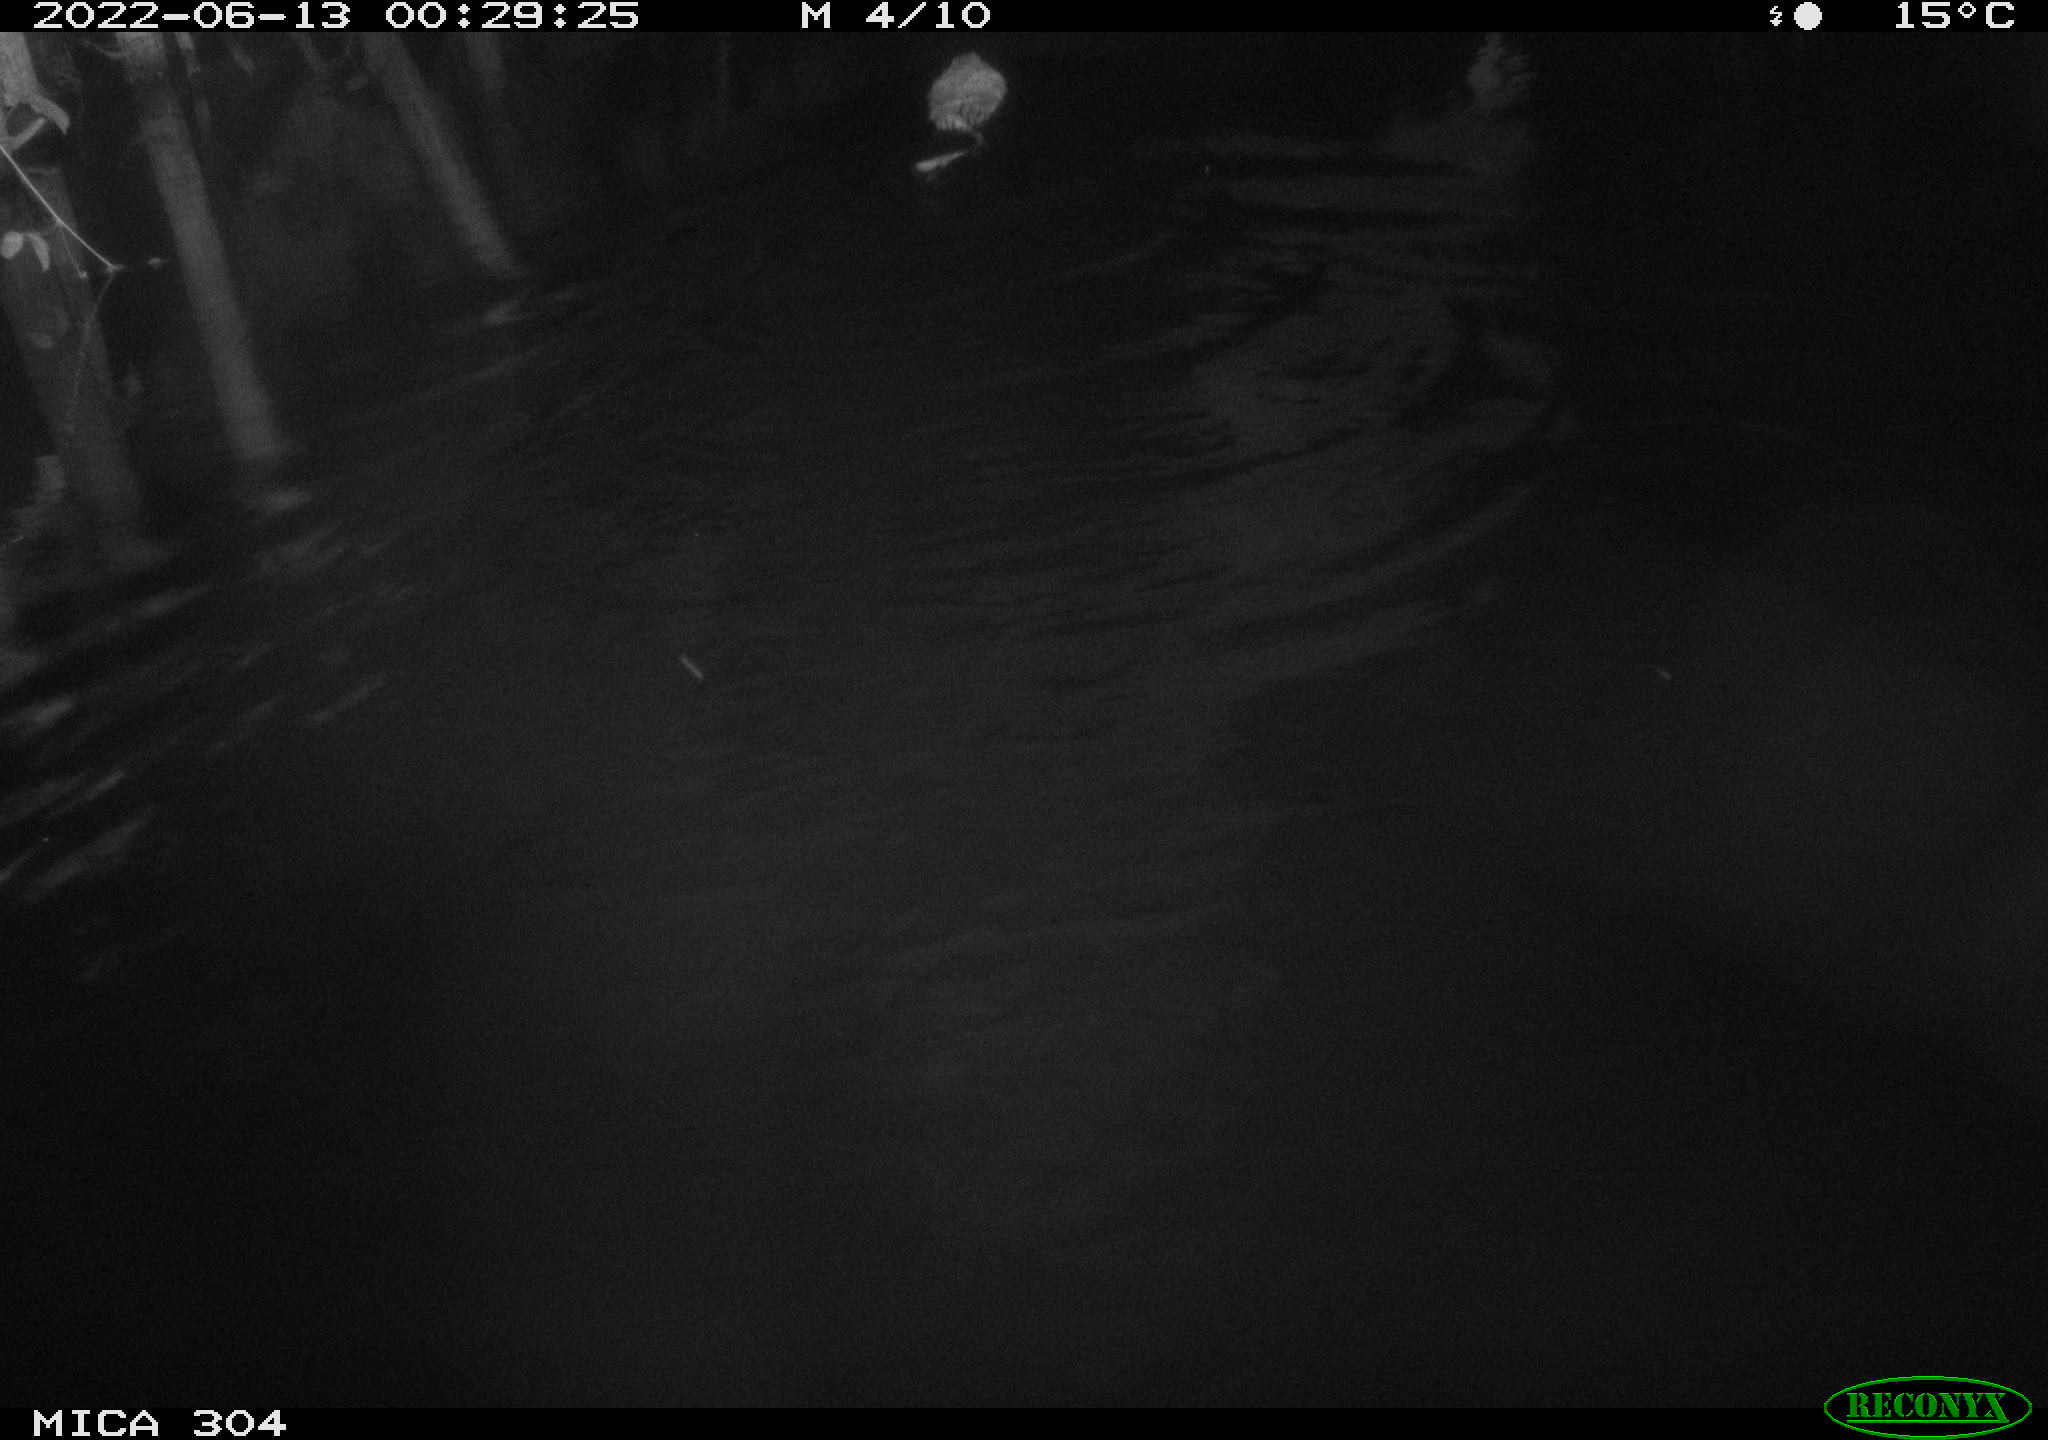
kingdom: Animalia
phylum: Chordata
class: Mammalia
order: Rodentia
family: Cricetidae
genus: Ondatra
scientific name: Ondatra zibethicus
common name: Muskrat
